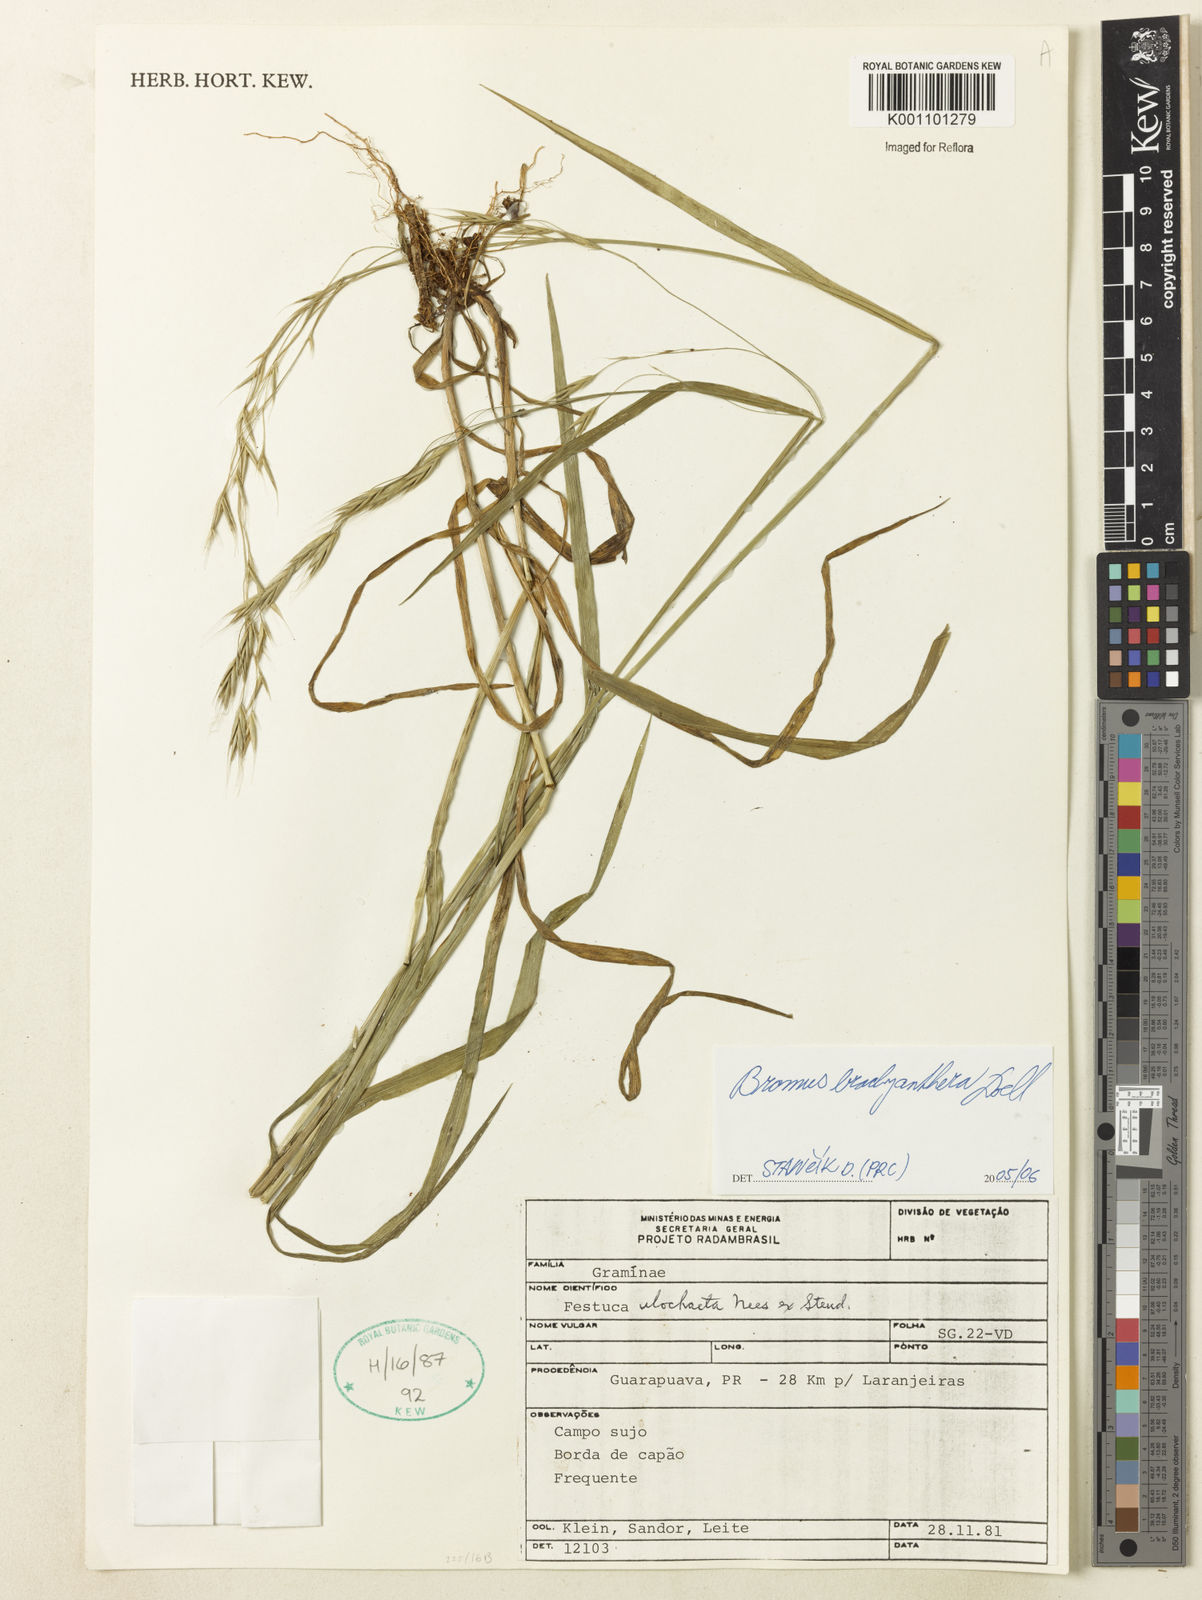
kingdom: Plantae
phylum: Tracheophyta
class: Liliopsida
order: Poales
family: Poaceae
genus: Bromus
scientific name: Bromus
